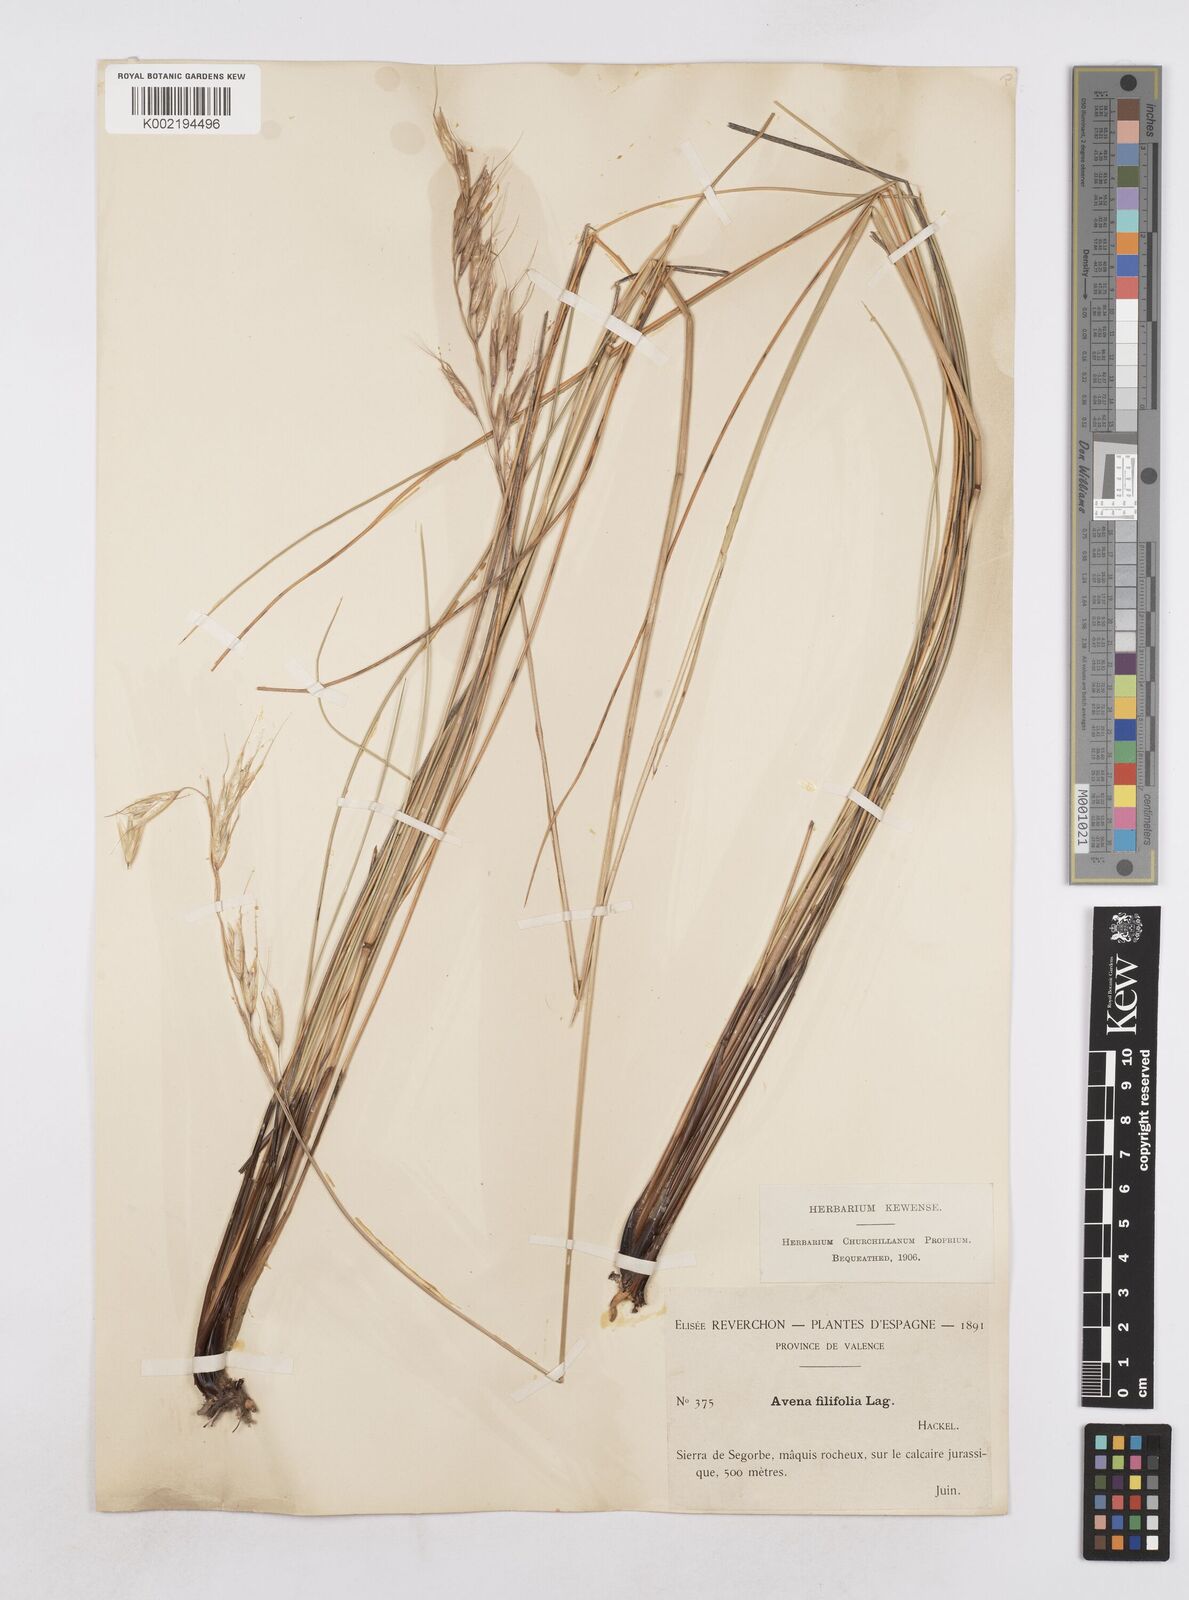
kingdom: Plantae
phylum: Tracheophyta
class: Liliopsida
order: Poales
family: Poaceae
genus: Helictotrichon
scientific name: Helictotrichon filifolium
